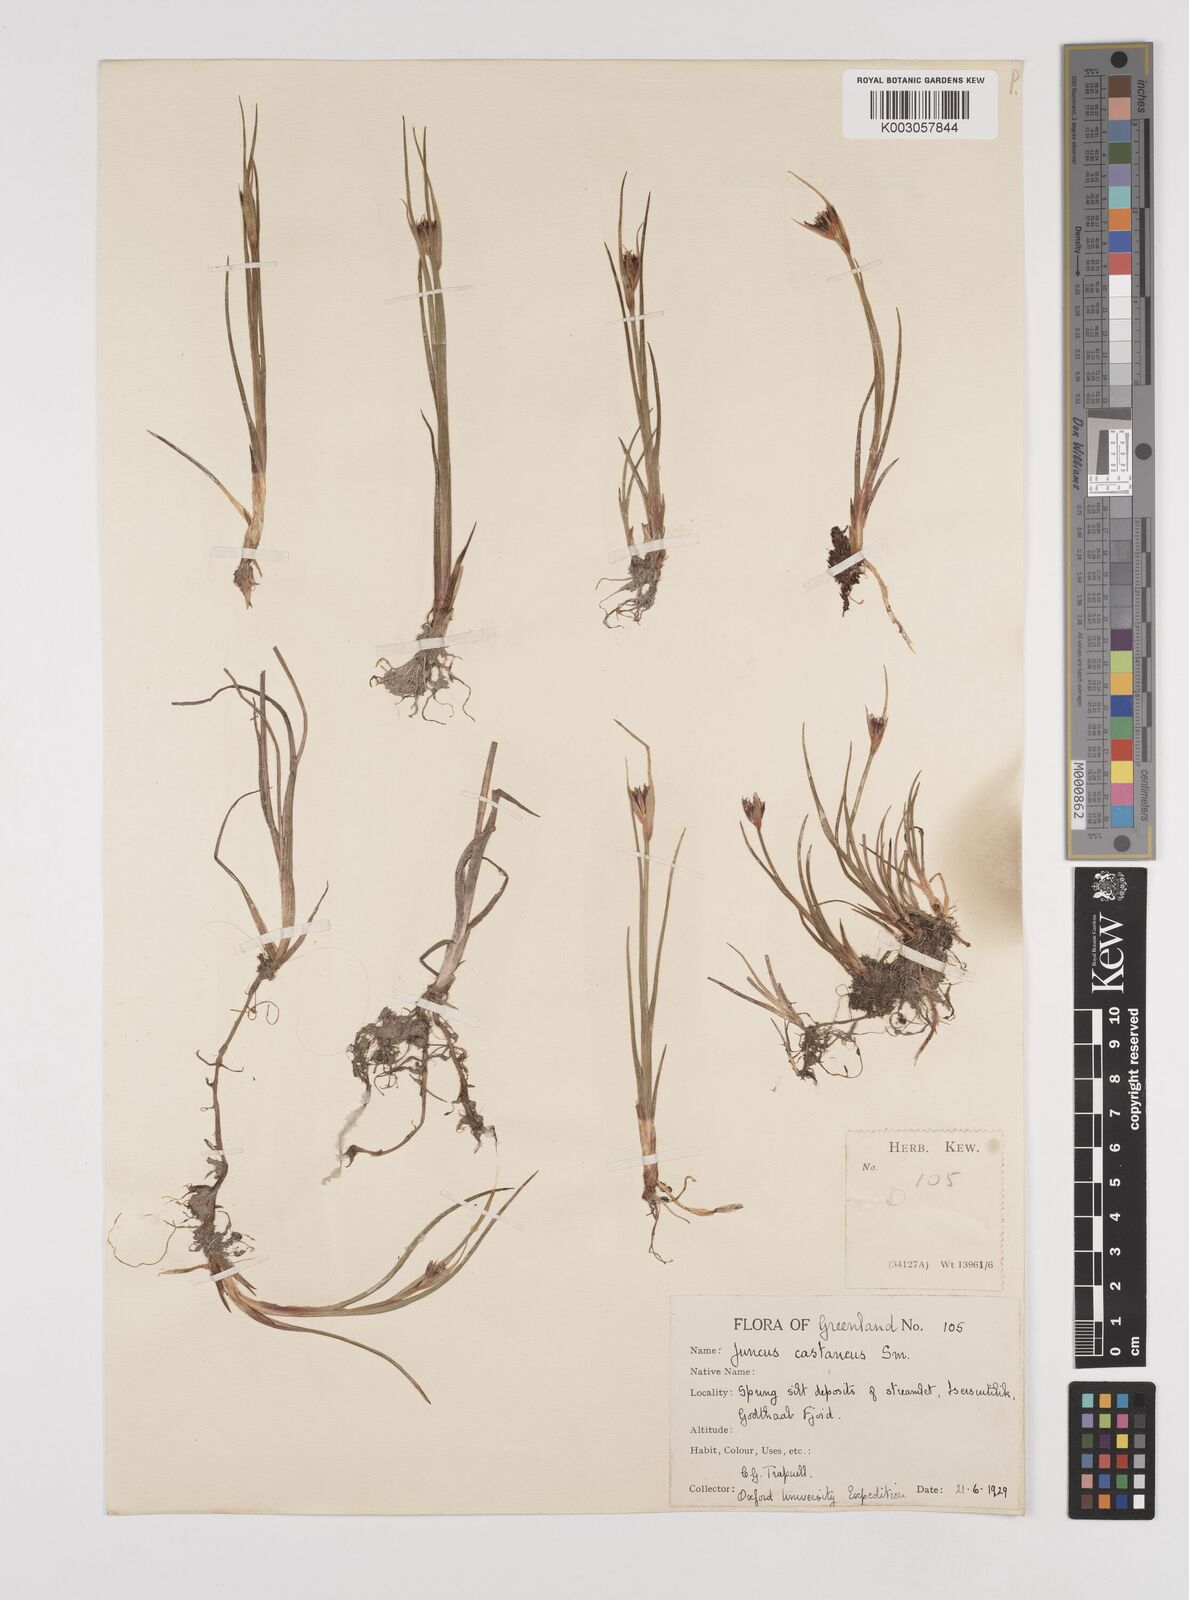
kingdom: Plantae
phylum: Tracheophyta
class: Liliopsida
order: Poales
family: Juncaceae
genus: Juncus
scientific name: Juncus castaneus
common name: Chestnut rush
